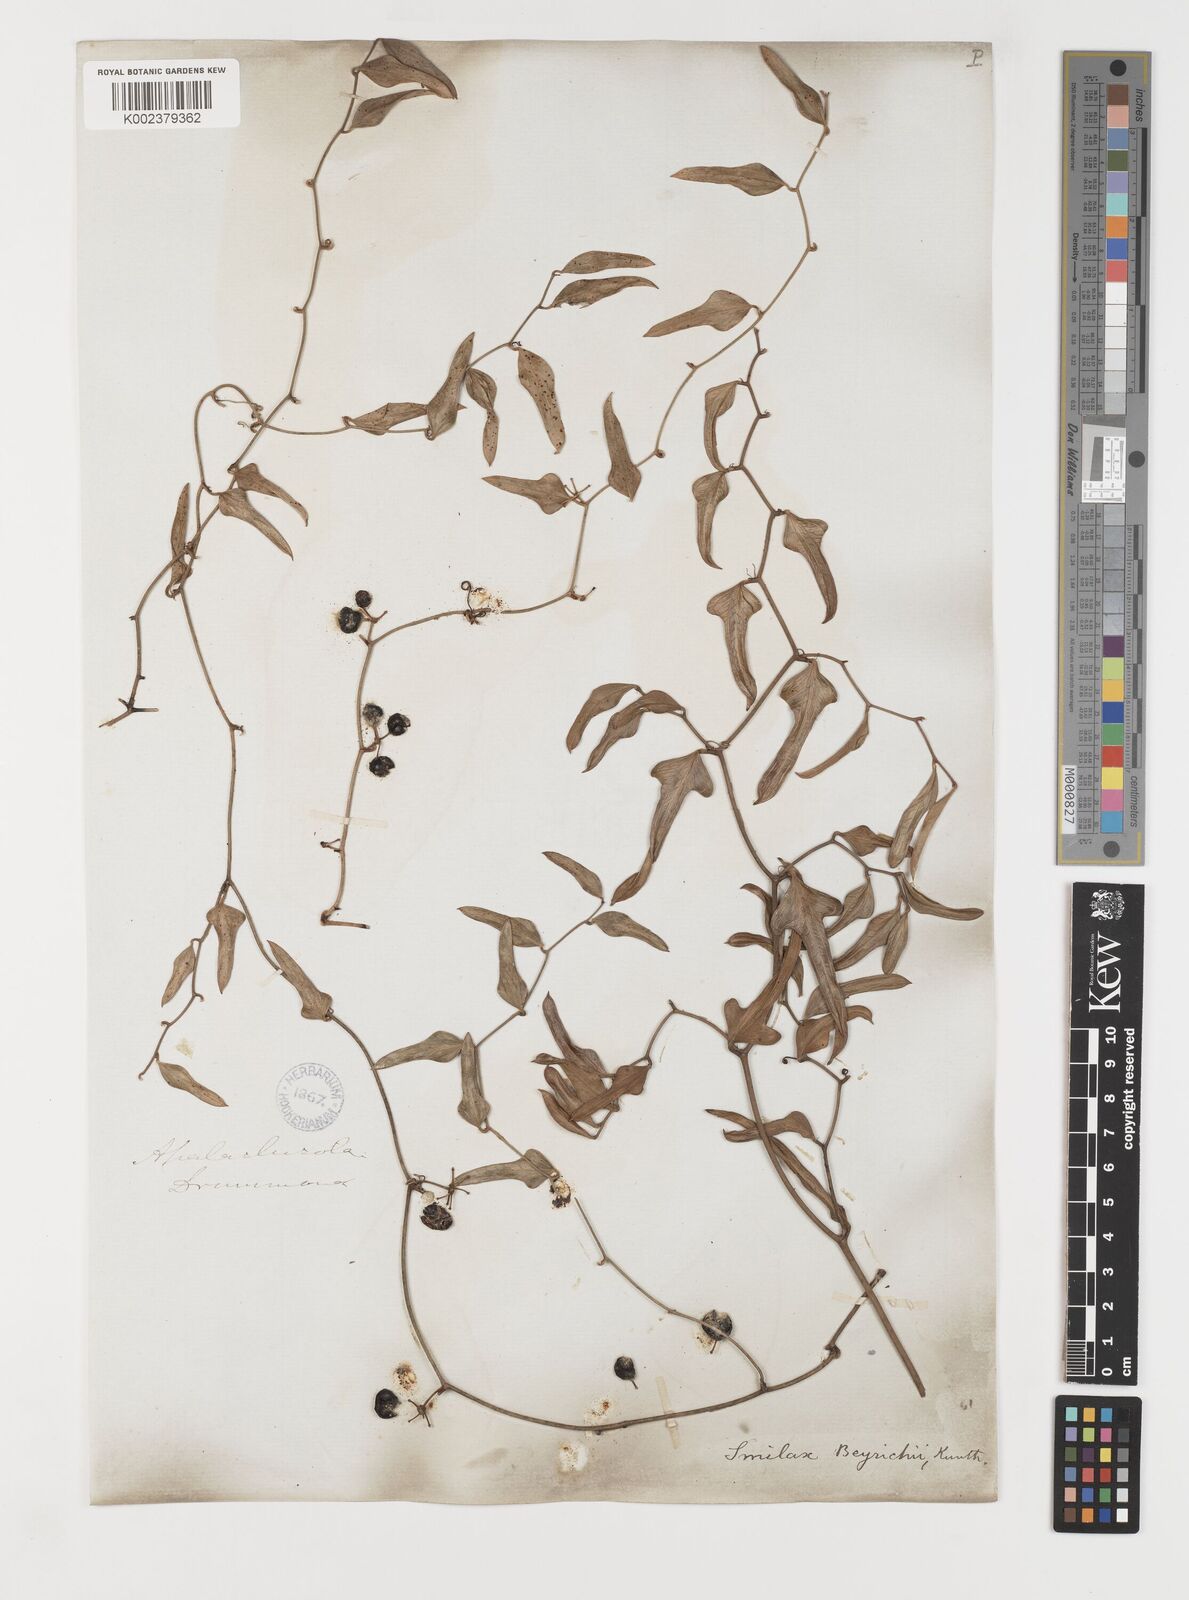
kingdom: Plantae
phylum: Tracheophyta
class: Liliopsida
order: Liliales
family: Smilacaceae
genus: Smilax
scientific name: Smilax auriculata
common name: Wild bamboo
